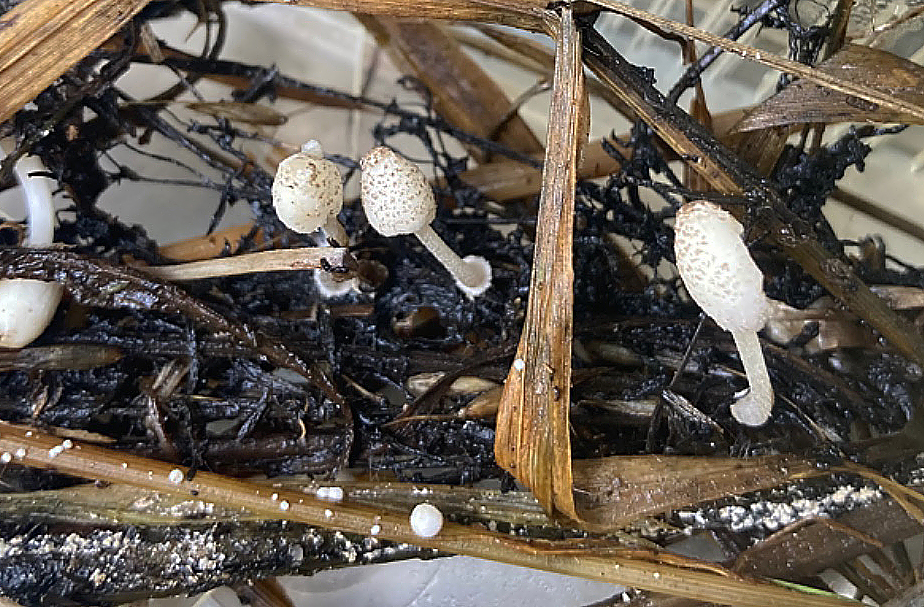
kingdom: Fungi
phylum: Basidiomycota
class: Agaricomycetes
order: Agaricales
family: Psathyrellaceae
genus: Coprinopsis
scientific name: Coprinopsis tigrinella
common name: brunfnugget blækhat
